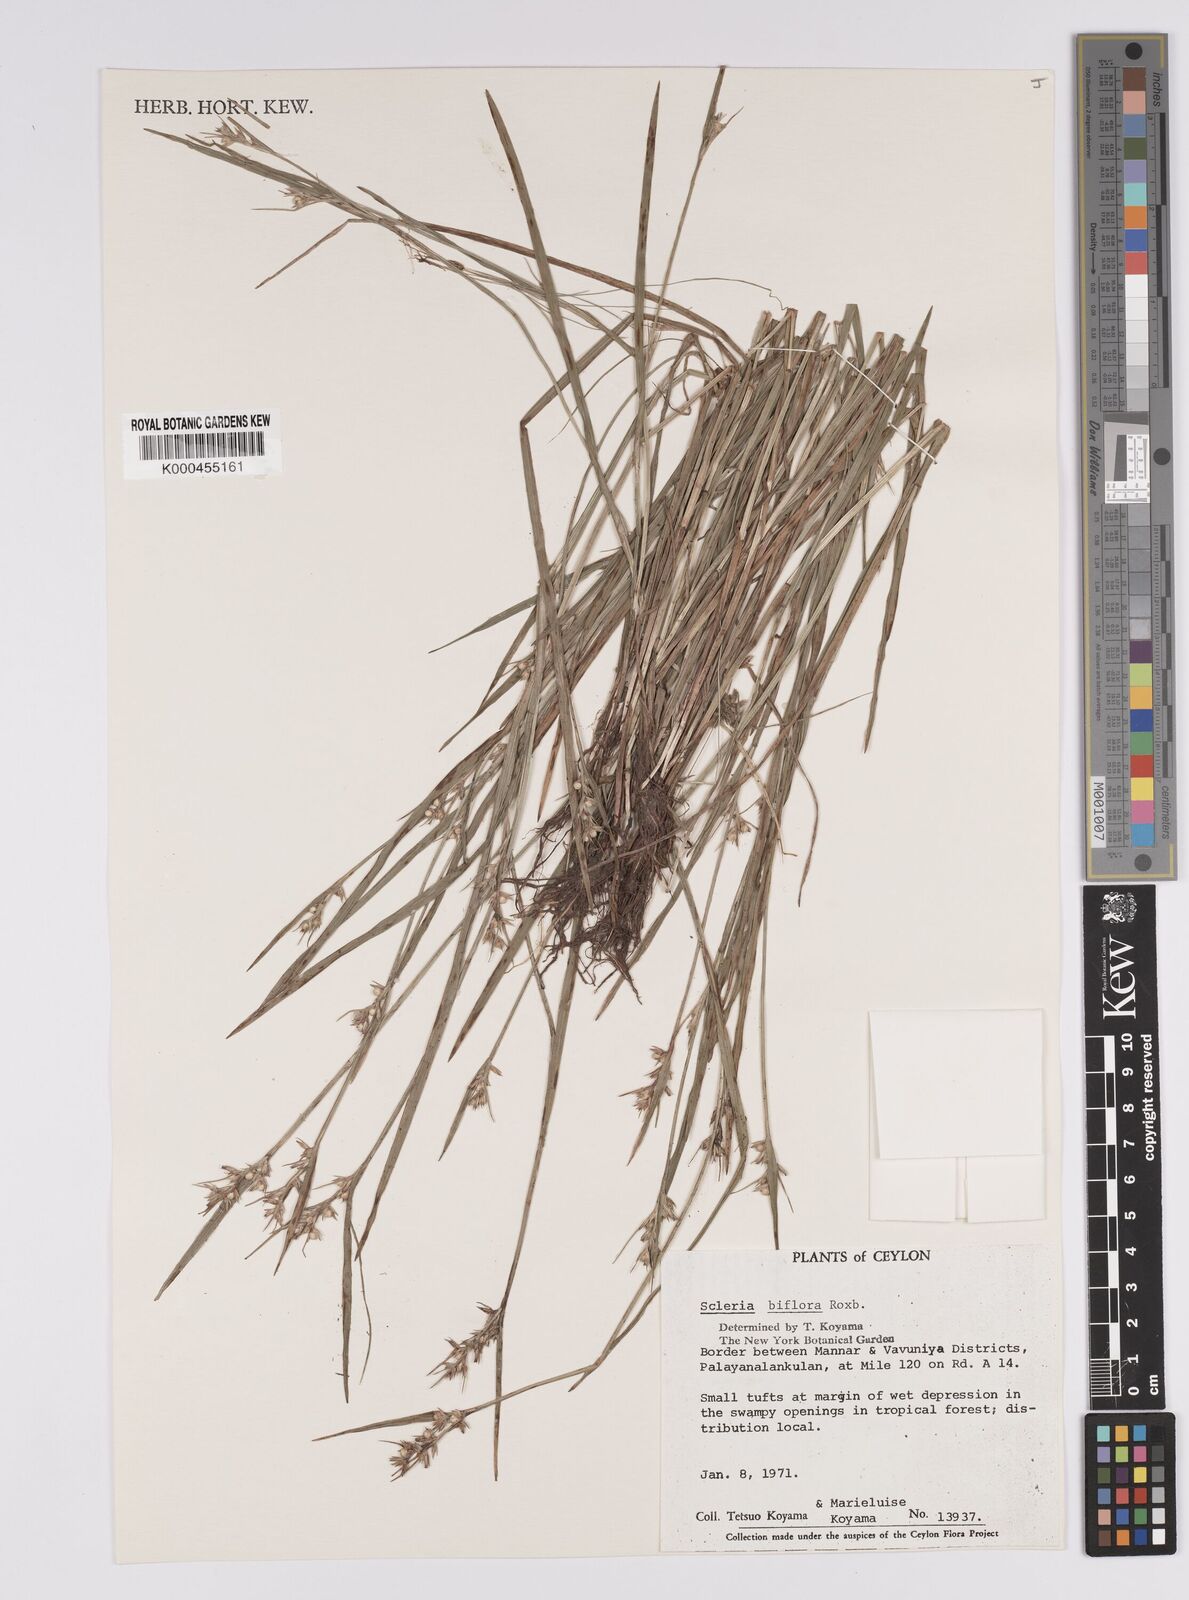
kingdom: Plantae
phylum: Tracheophyta
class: Liliopsida
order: Poales
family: Cyperaceae
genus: Scleria
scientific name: Scleria biflora
